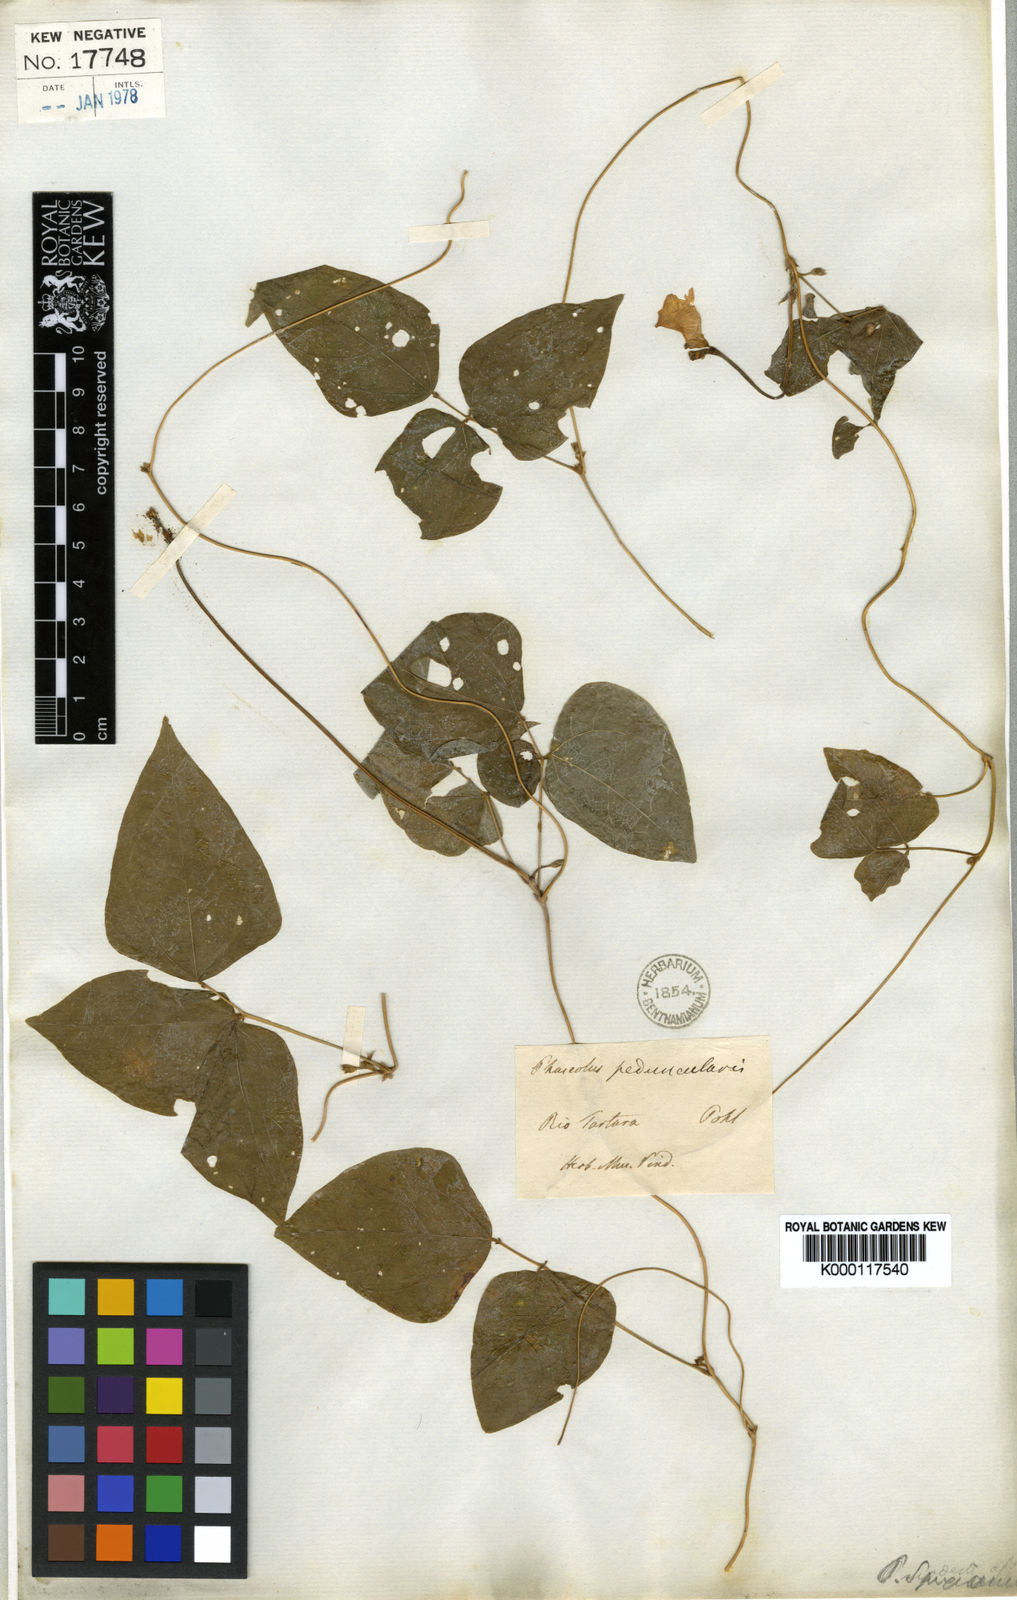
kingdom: Plantae
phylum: Tracheophyta
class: Magnoliopsida
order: Fabales
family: Fabaceae
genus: Strophostyles
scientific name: Strophostyles helvola
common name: Trailing wild bean
